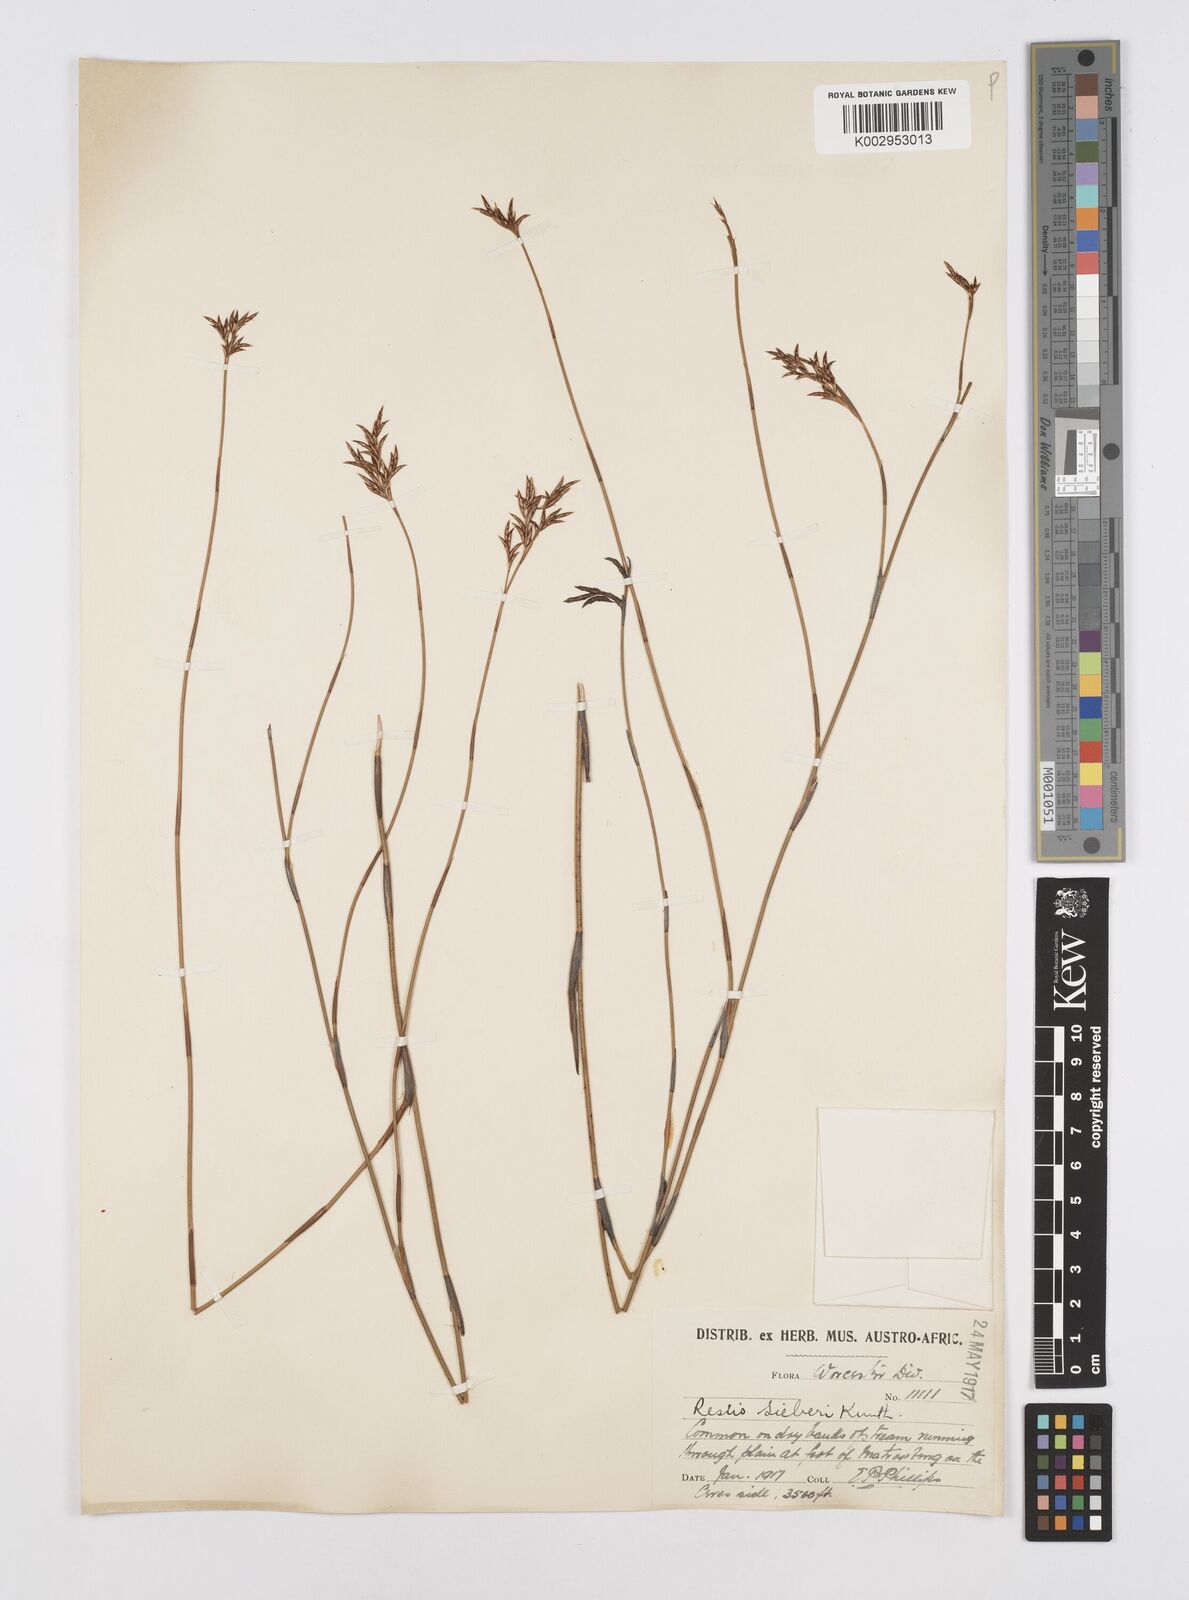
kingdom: Plantae
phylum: Tracheophyta
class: Liliopsida
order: Poales
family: Restionaceae
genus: Restio
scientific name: Restio sieberi
